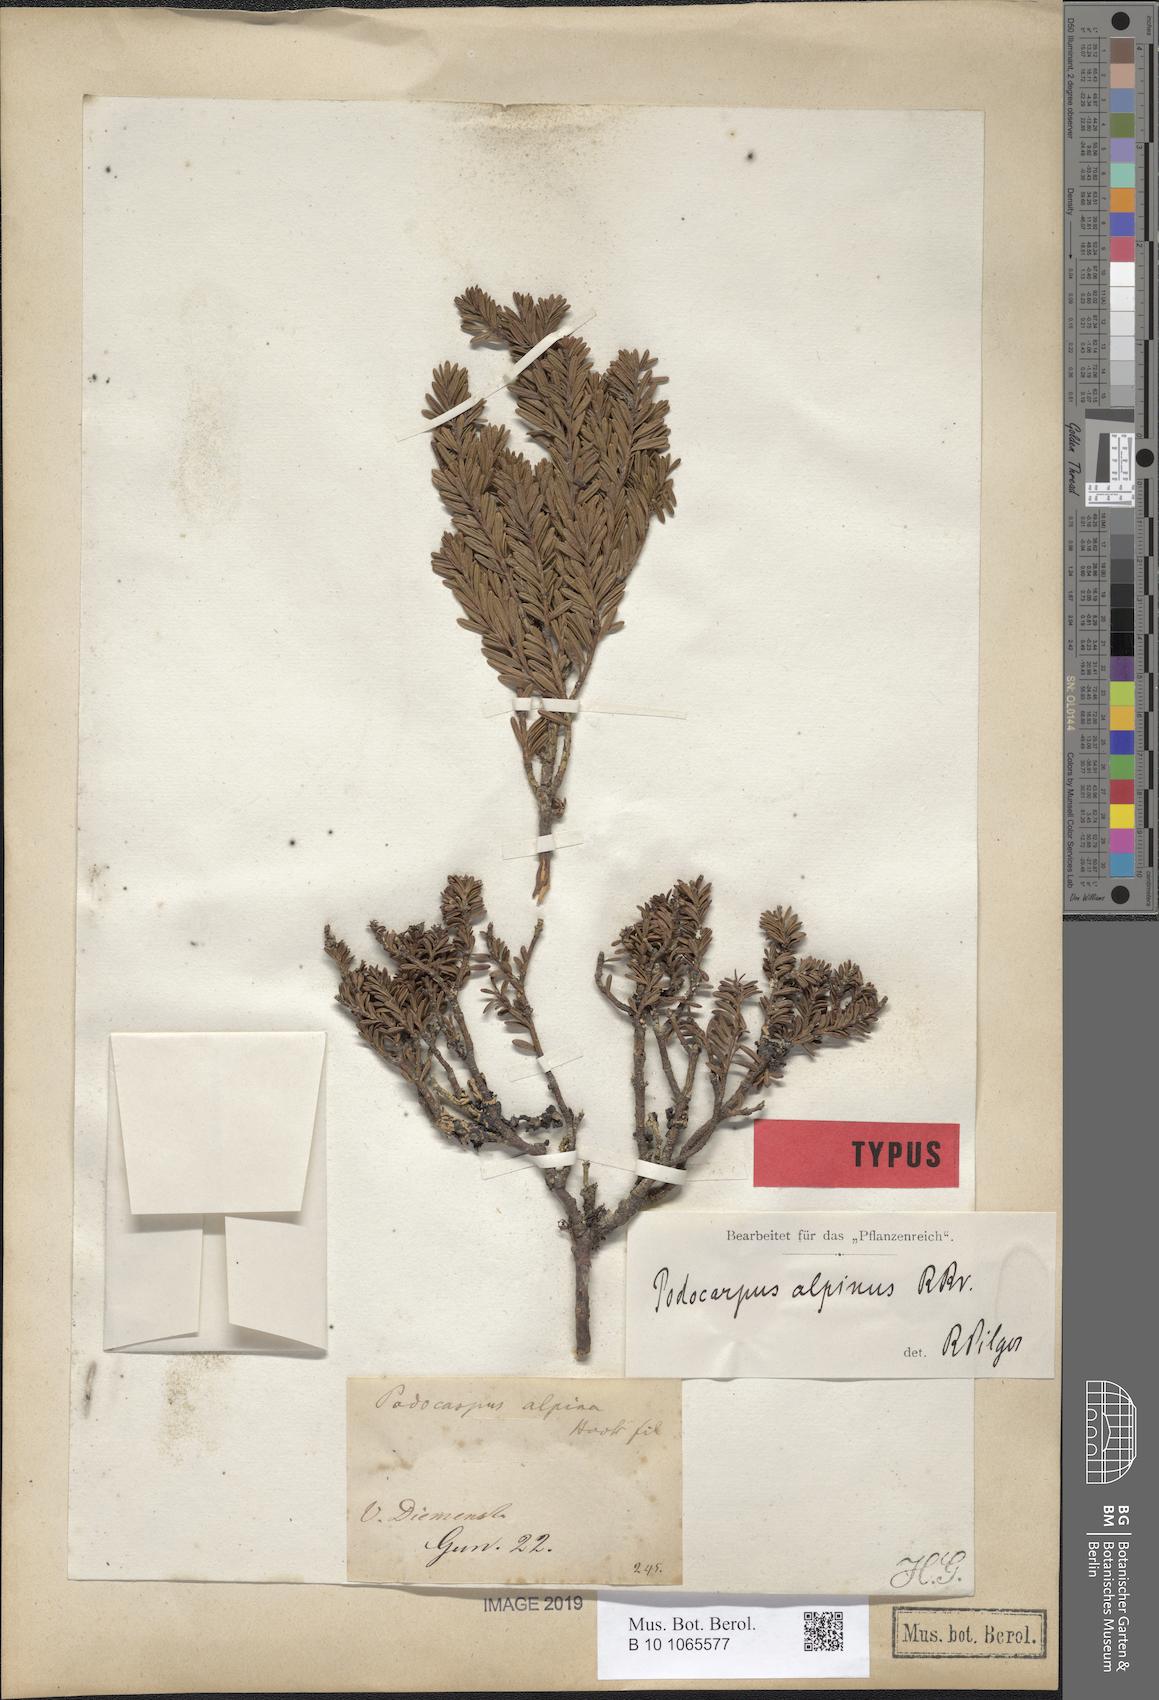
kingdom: Plantae
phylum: Tracheophyta
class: Pinopsida
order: Pinales
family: Podocarpaceae
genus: Podocarpus
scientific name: Podocarpus lawrencei
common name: Mountain plum pine
